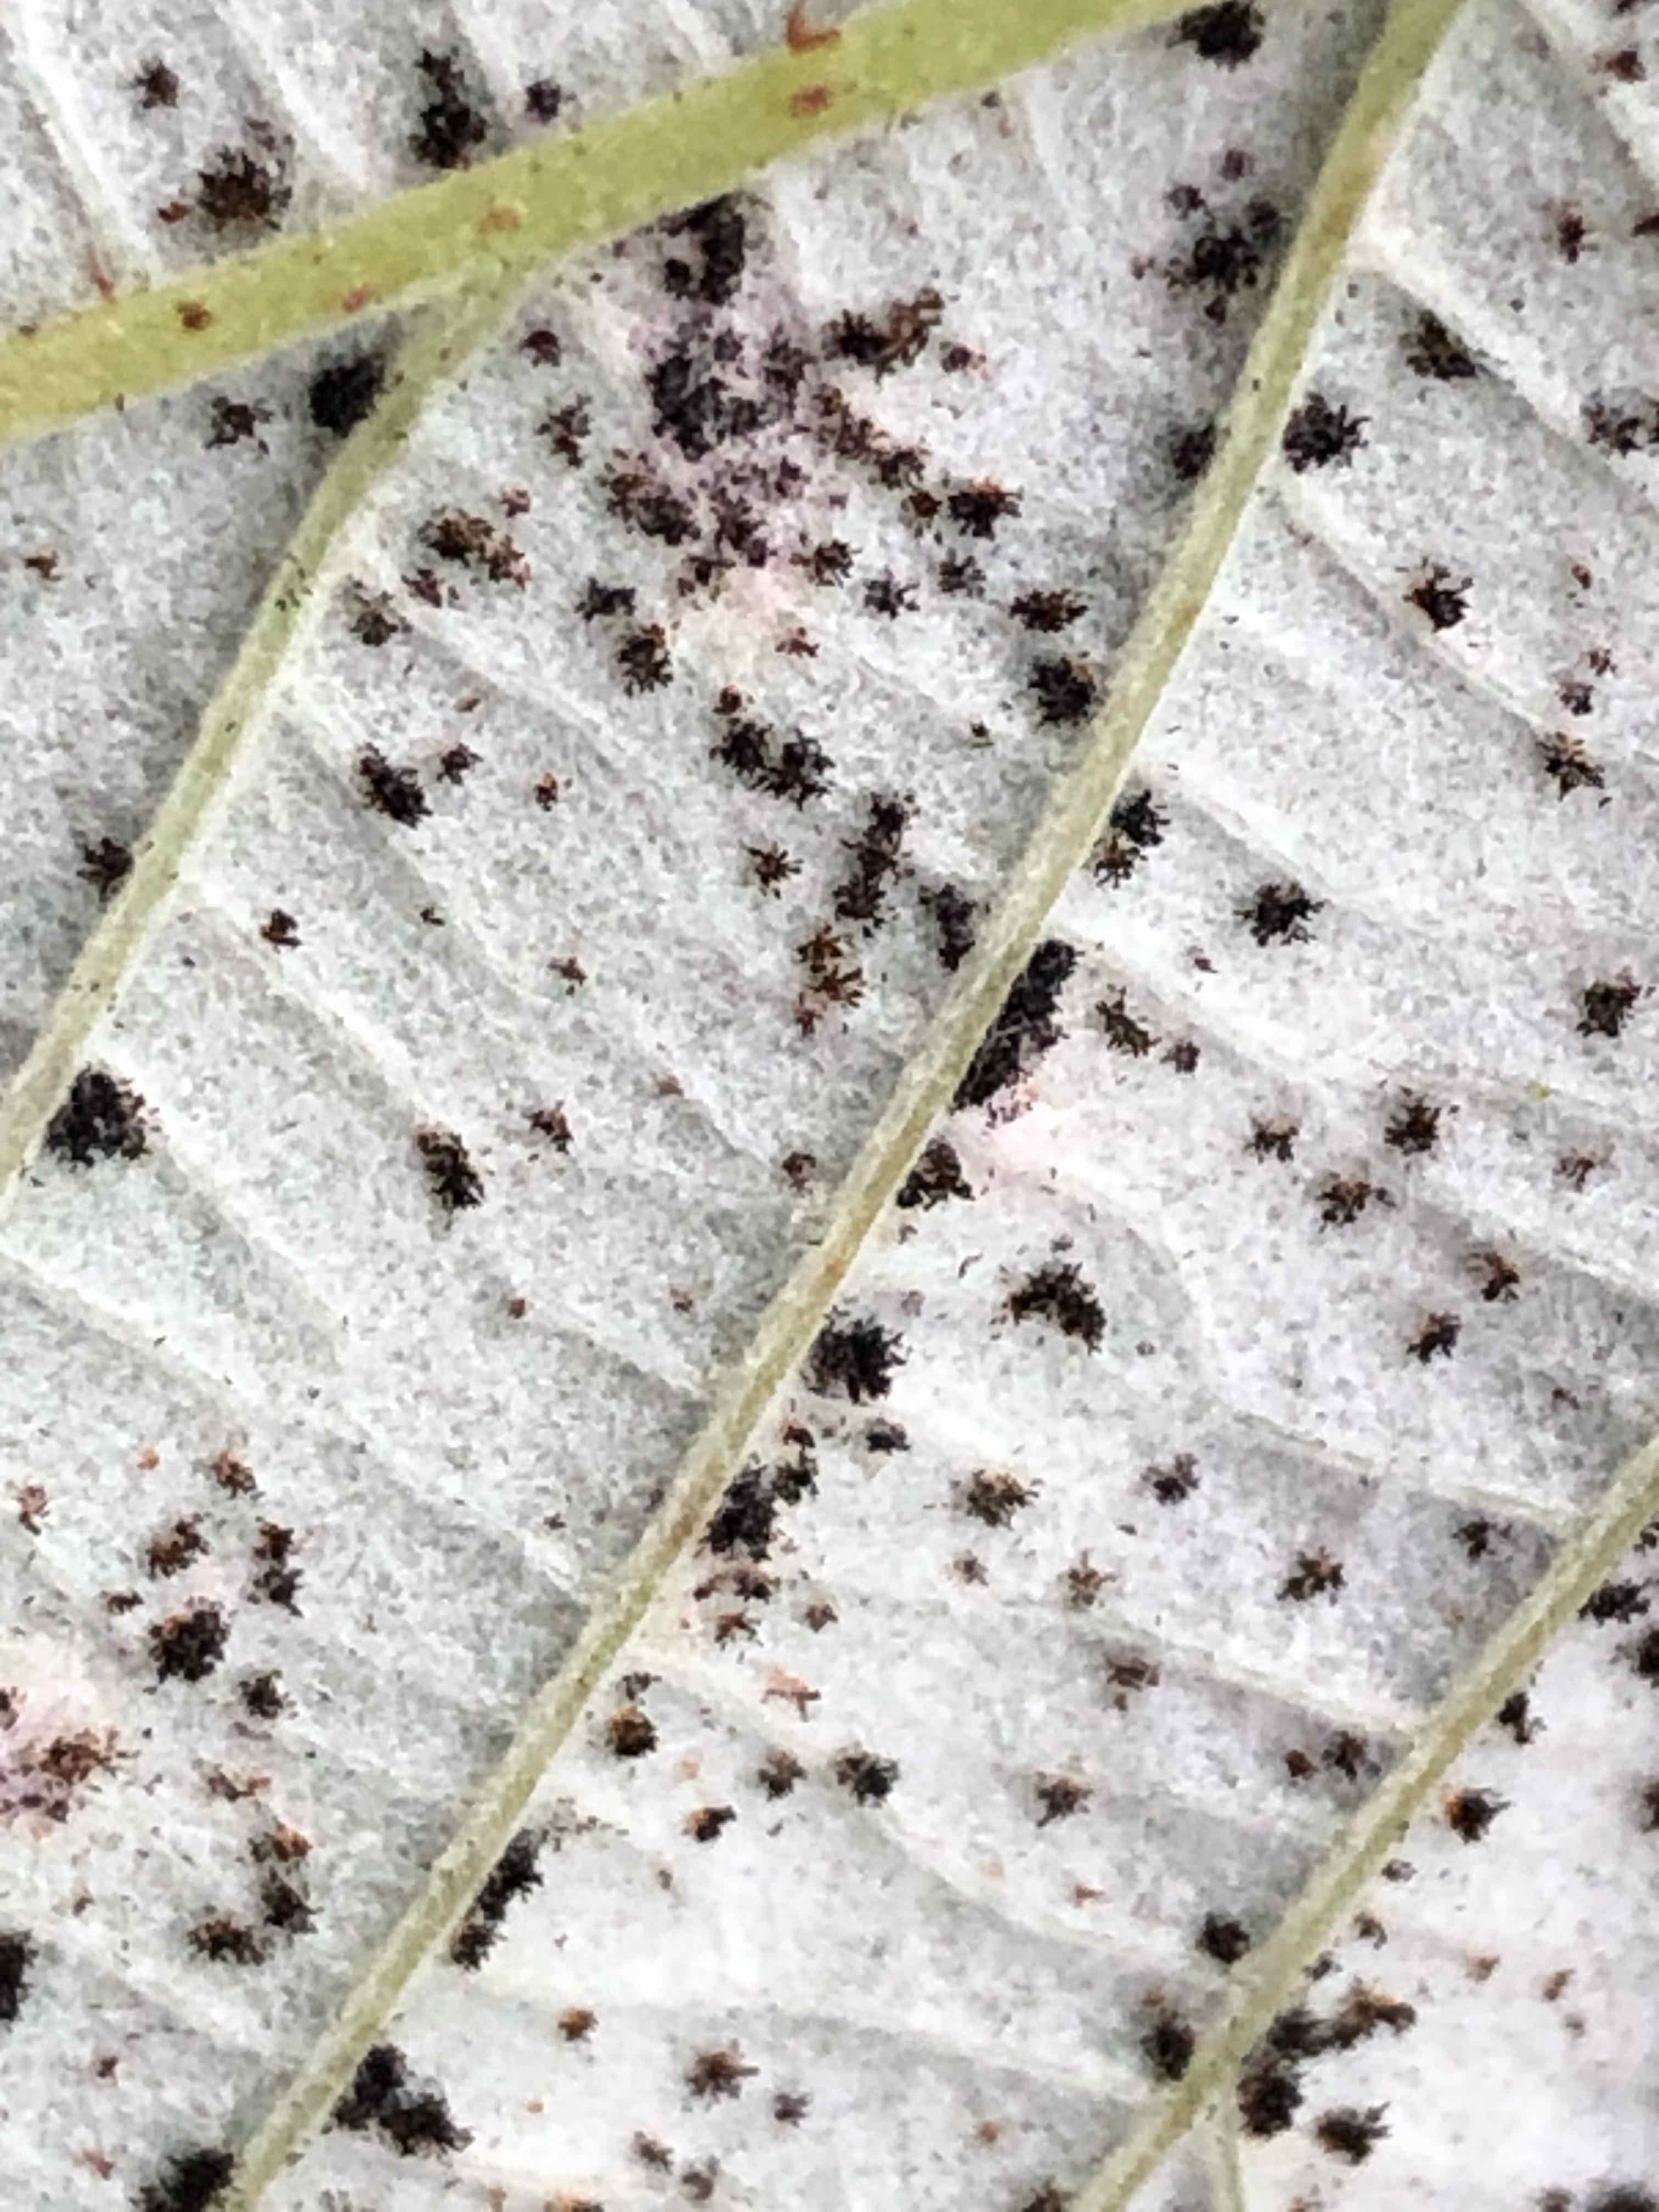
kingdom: Fungi
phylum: Basidiomycota
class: Pucciniomycetes
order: Pucciniales
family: Phragmidiaceae
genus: Phragmidium
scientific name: Phragmidium rubi-idaei
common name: hindbær-flercellerust
